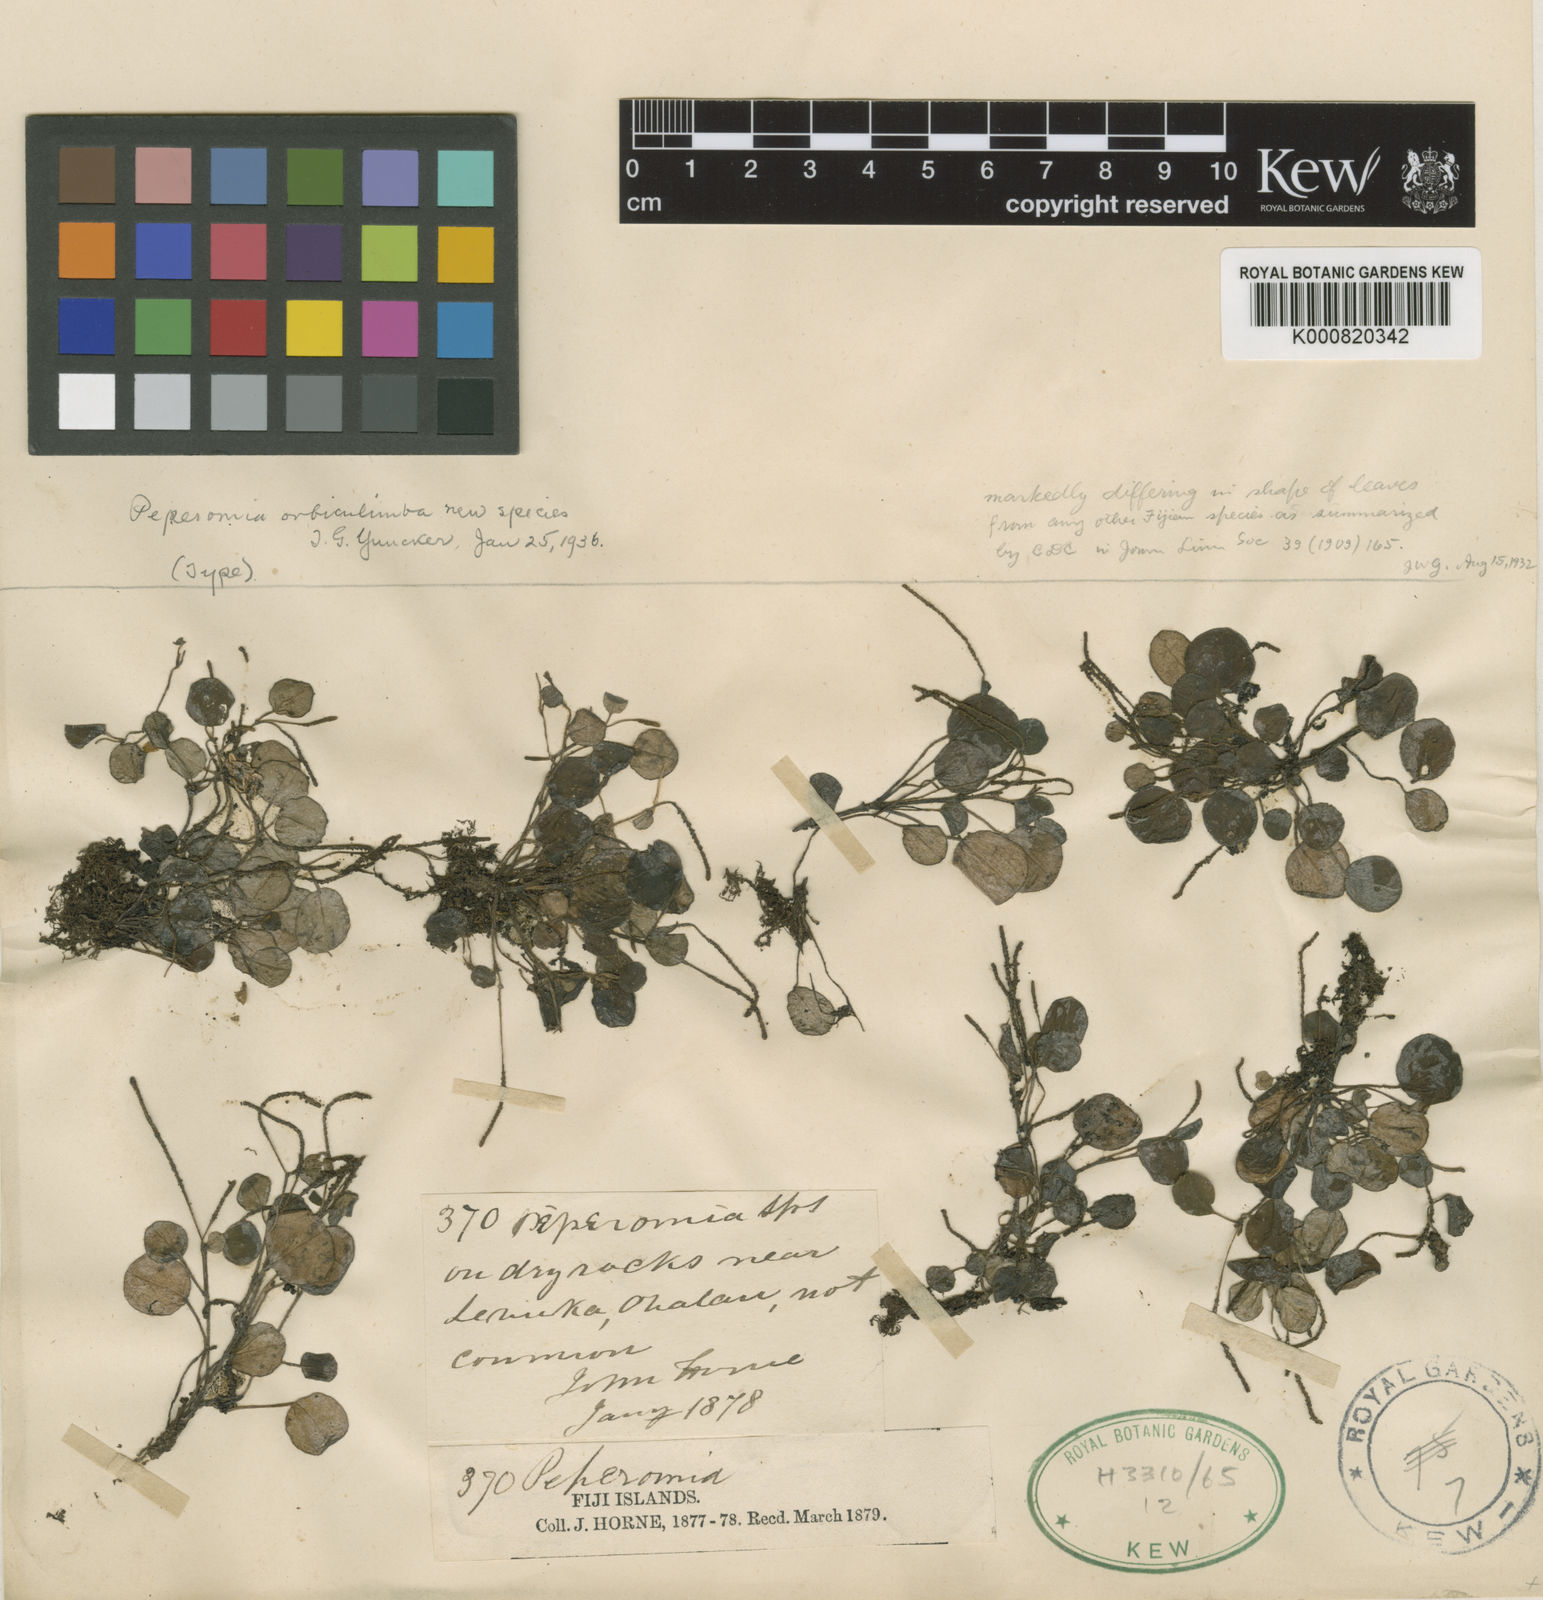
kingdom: Plantae
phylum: Tracheophyta
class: Magnoliopsida
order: Piperales
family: Piperaceae
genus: Peperomia
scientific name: Peperomia orbiculimba
